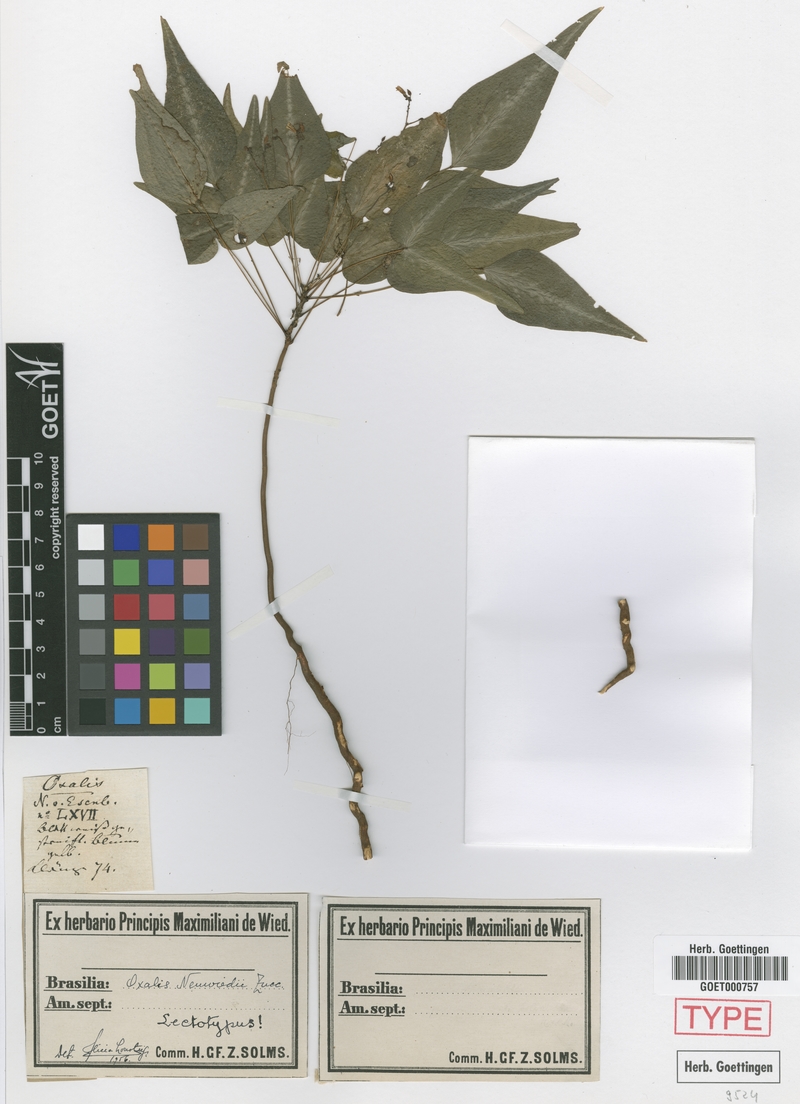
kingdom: Plantae
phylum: Tracheophyta
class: Magnoliopsida
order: Oxalidales
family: Oxalidaceae
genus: Oxalis
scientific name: Oxalis neuwiedii
